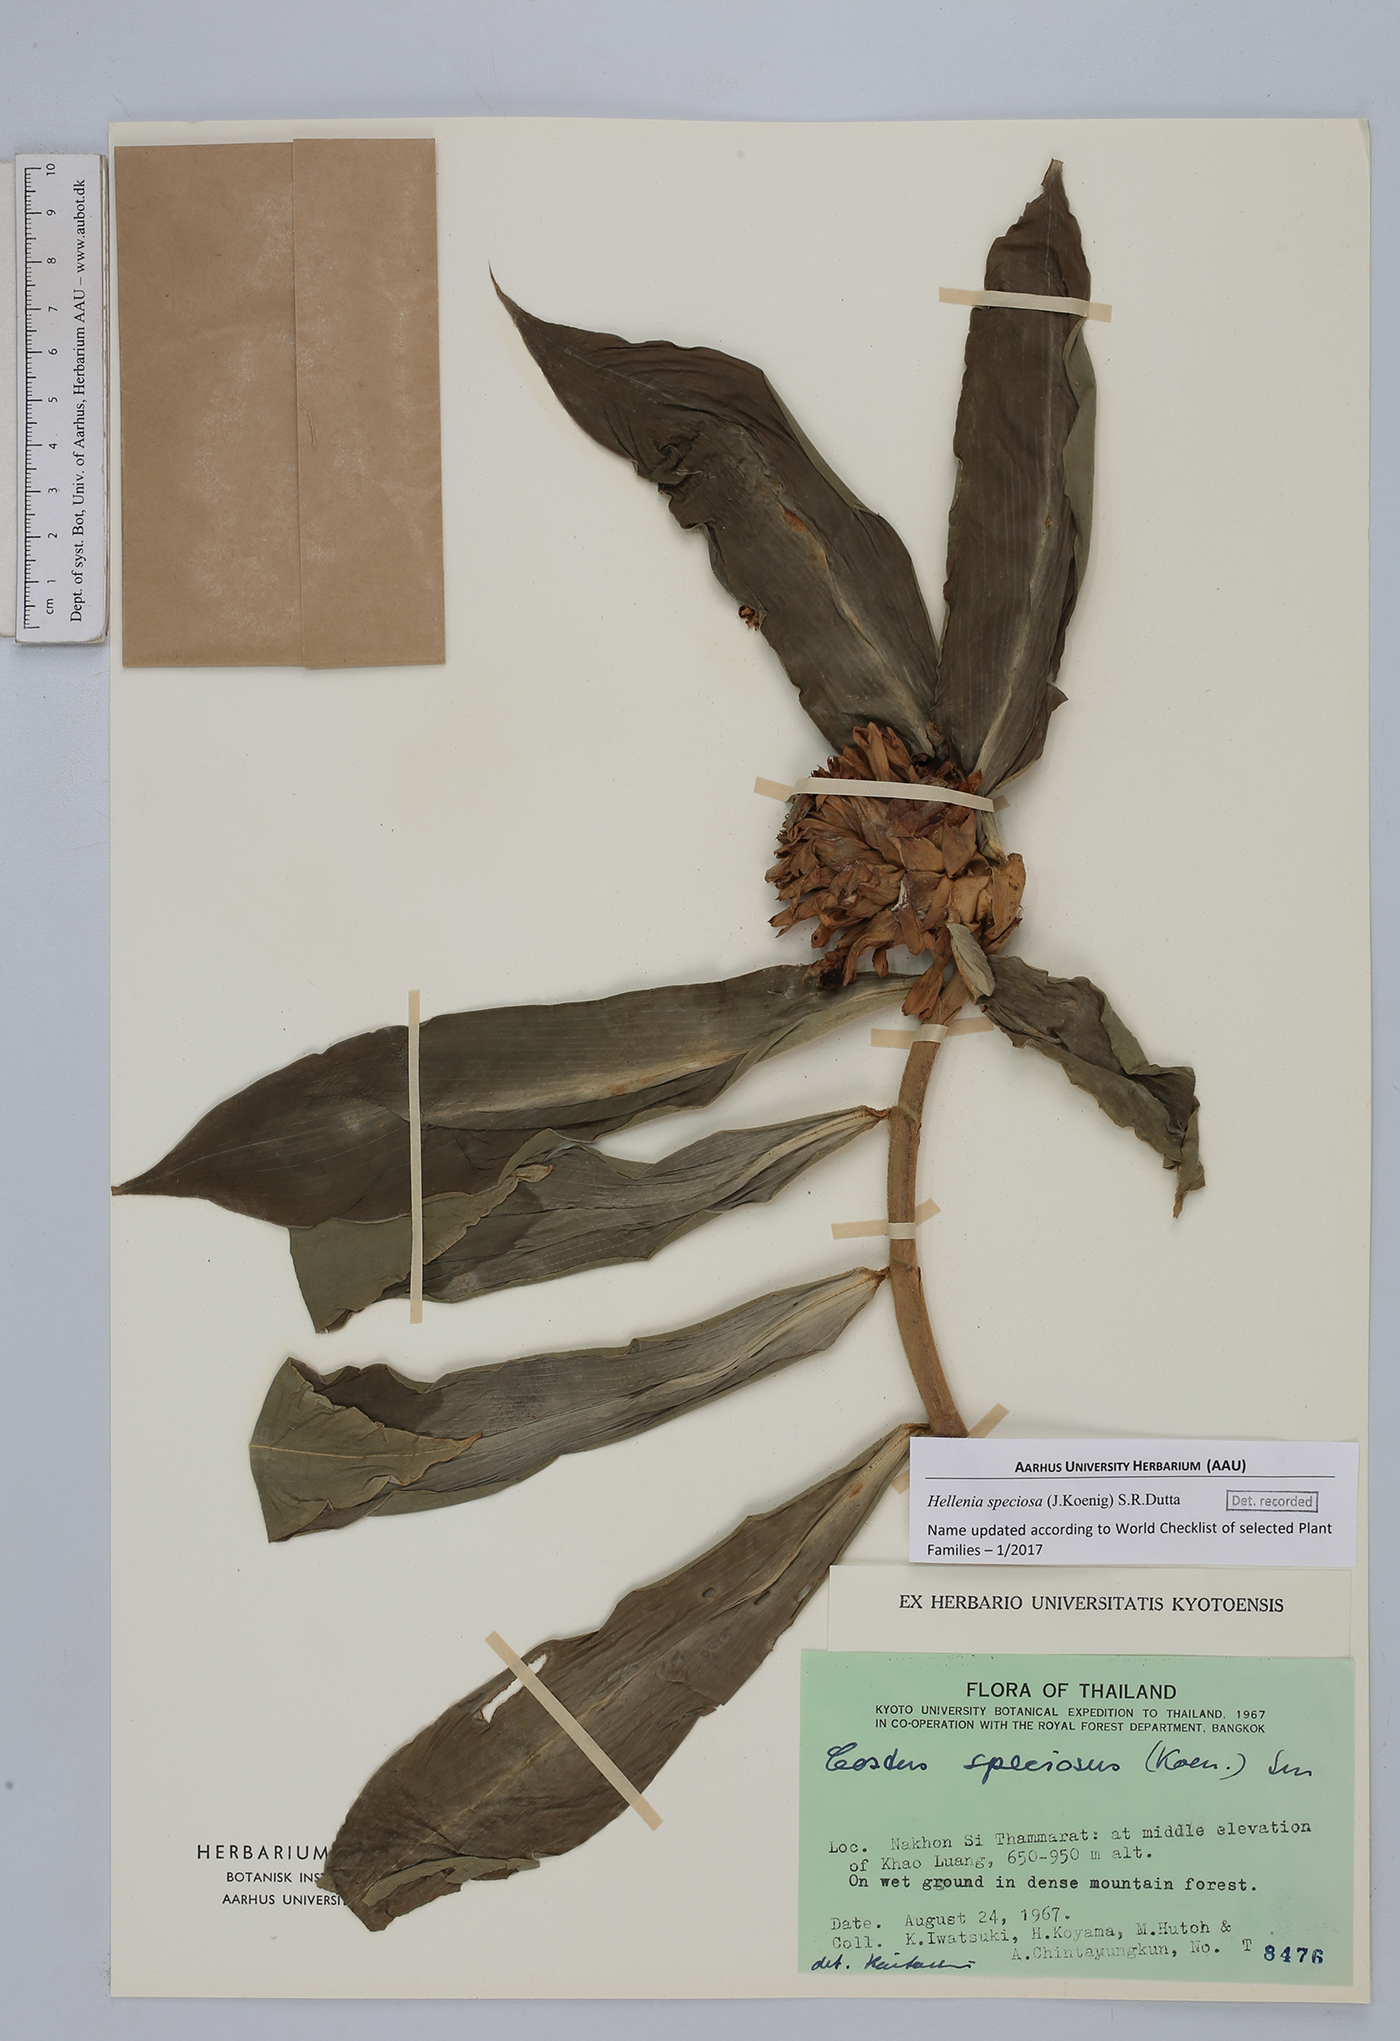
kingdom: Plantae
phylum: Tracheophyta
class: Liliopsida
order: Zingiberales
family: Costaceae
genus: Hellenia
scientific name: Hellenia speciosa
